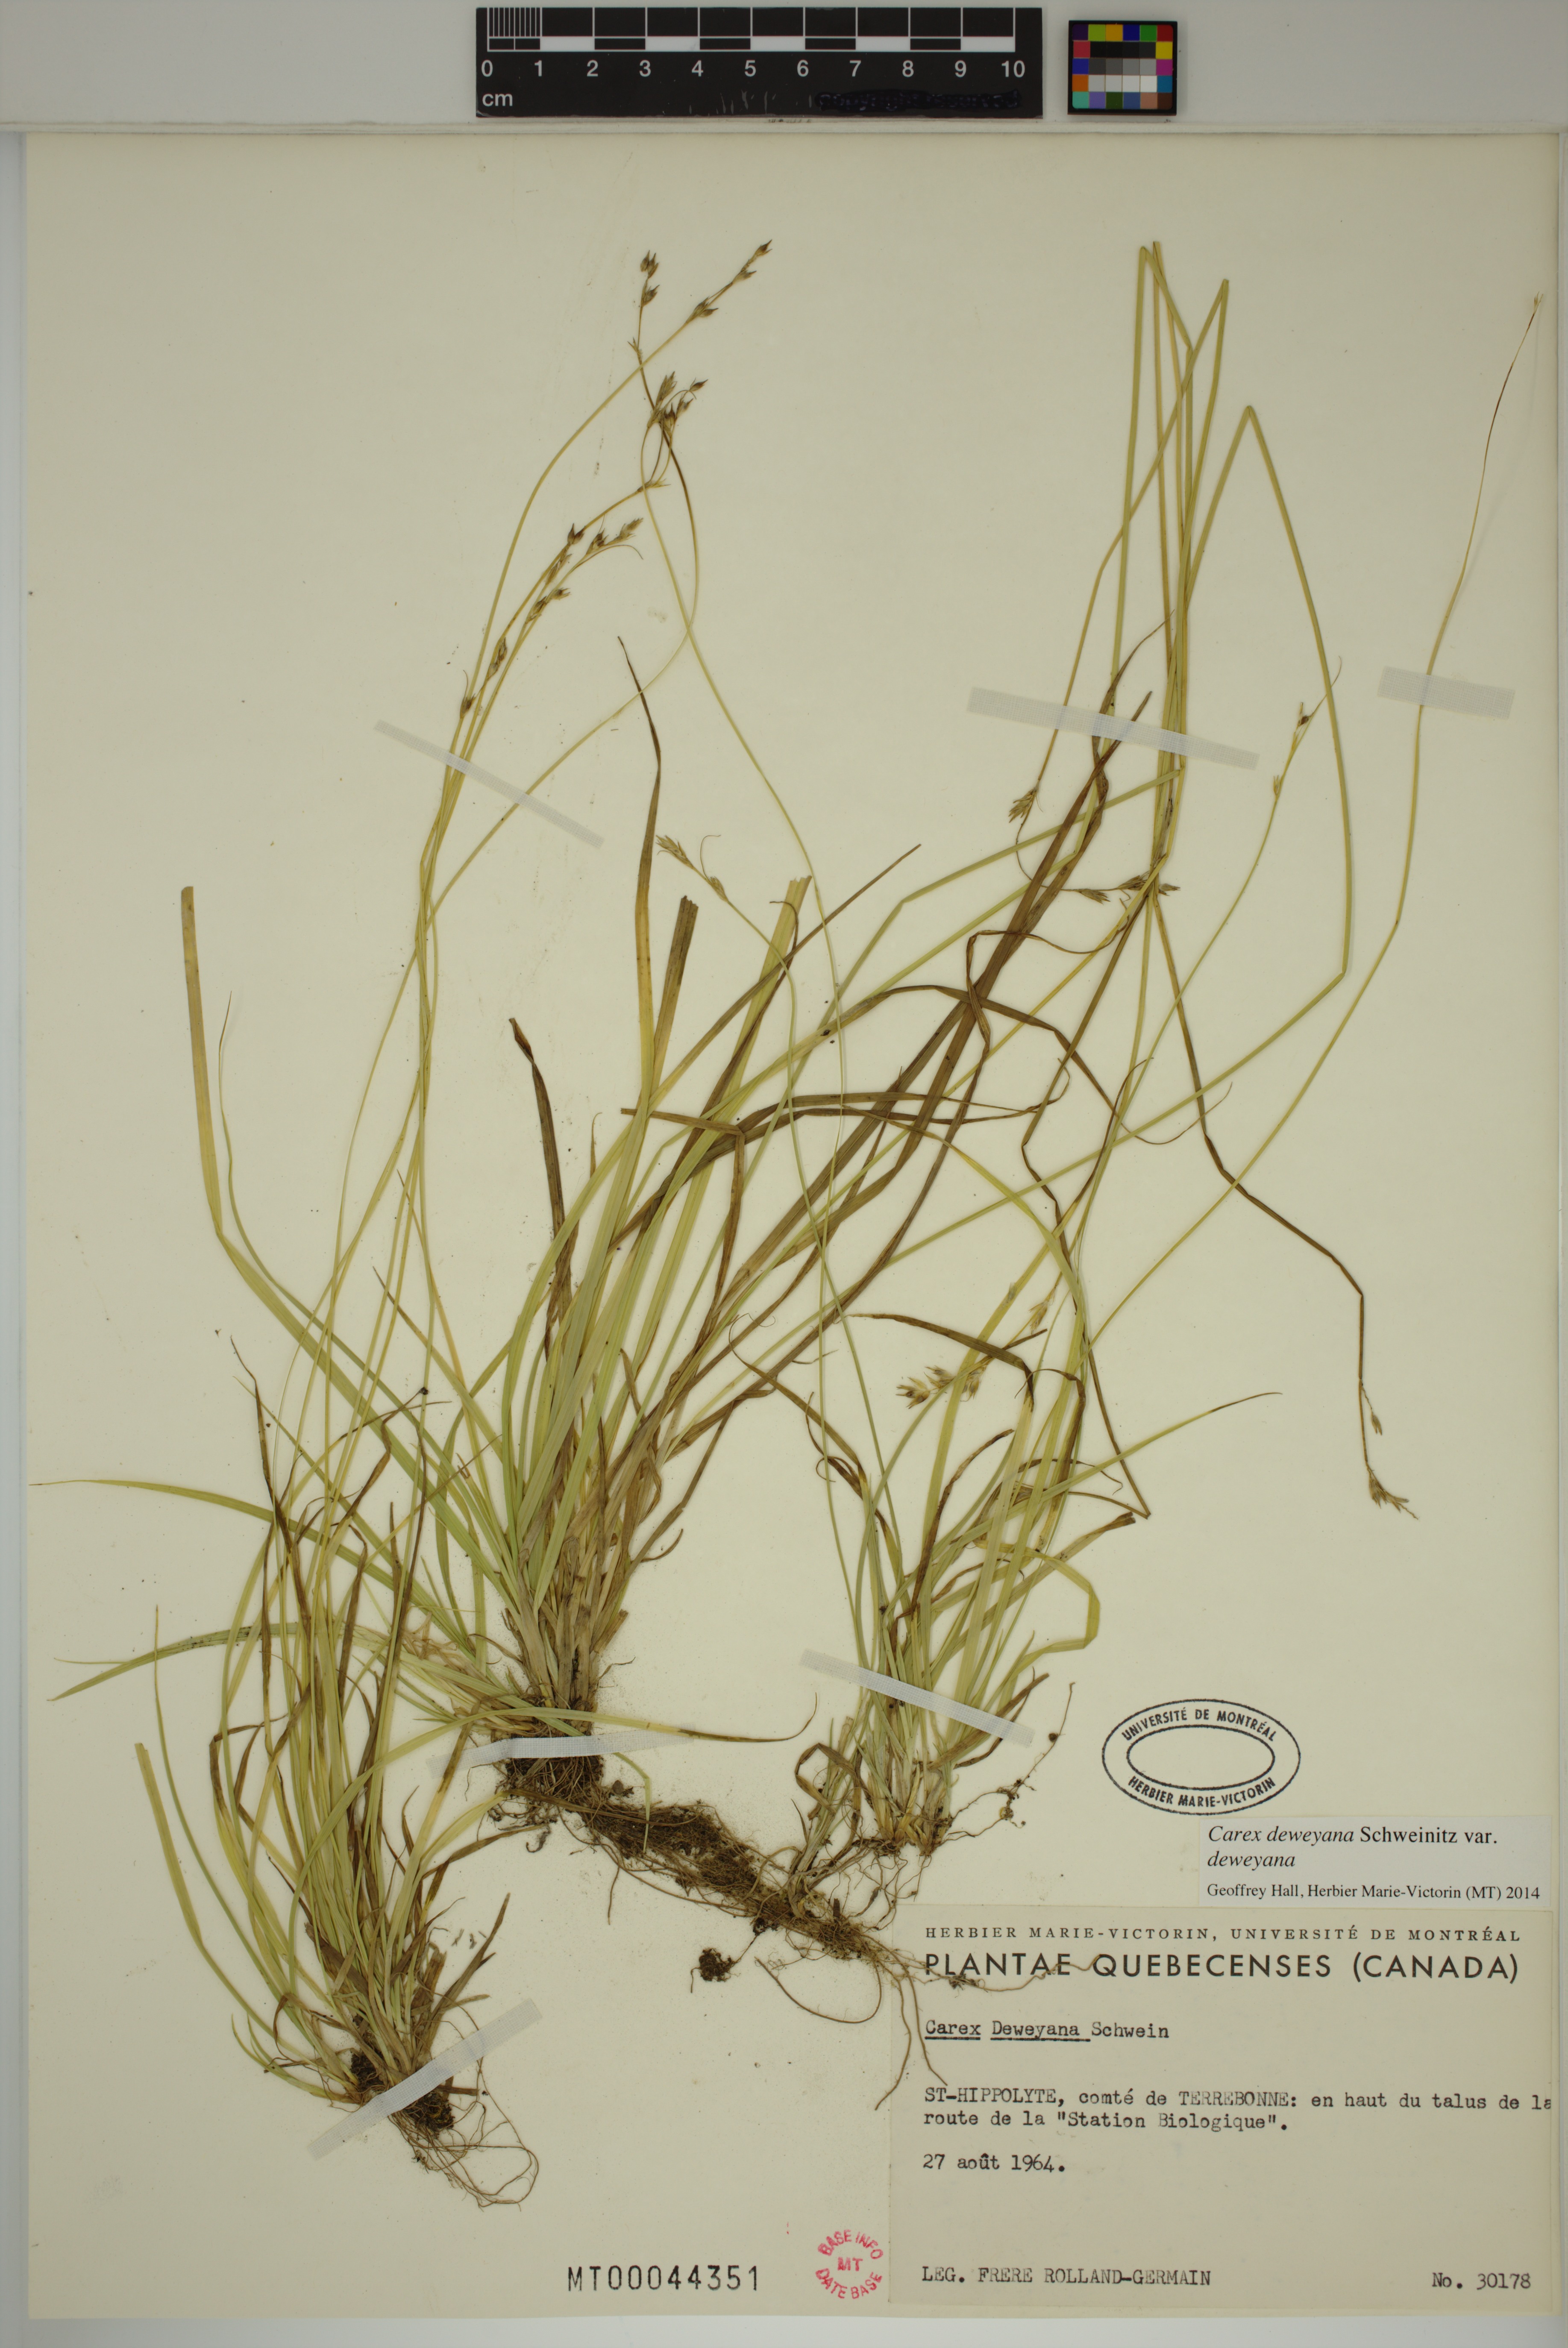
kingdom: Plantae
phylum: Tracheophyta
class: Liliopsida
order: Poales
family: Cyperaceae
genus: Carex
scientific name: Carex deweyana
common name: Dewey's sedge
